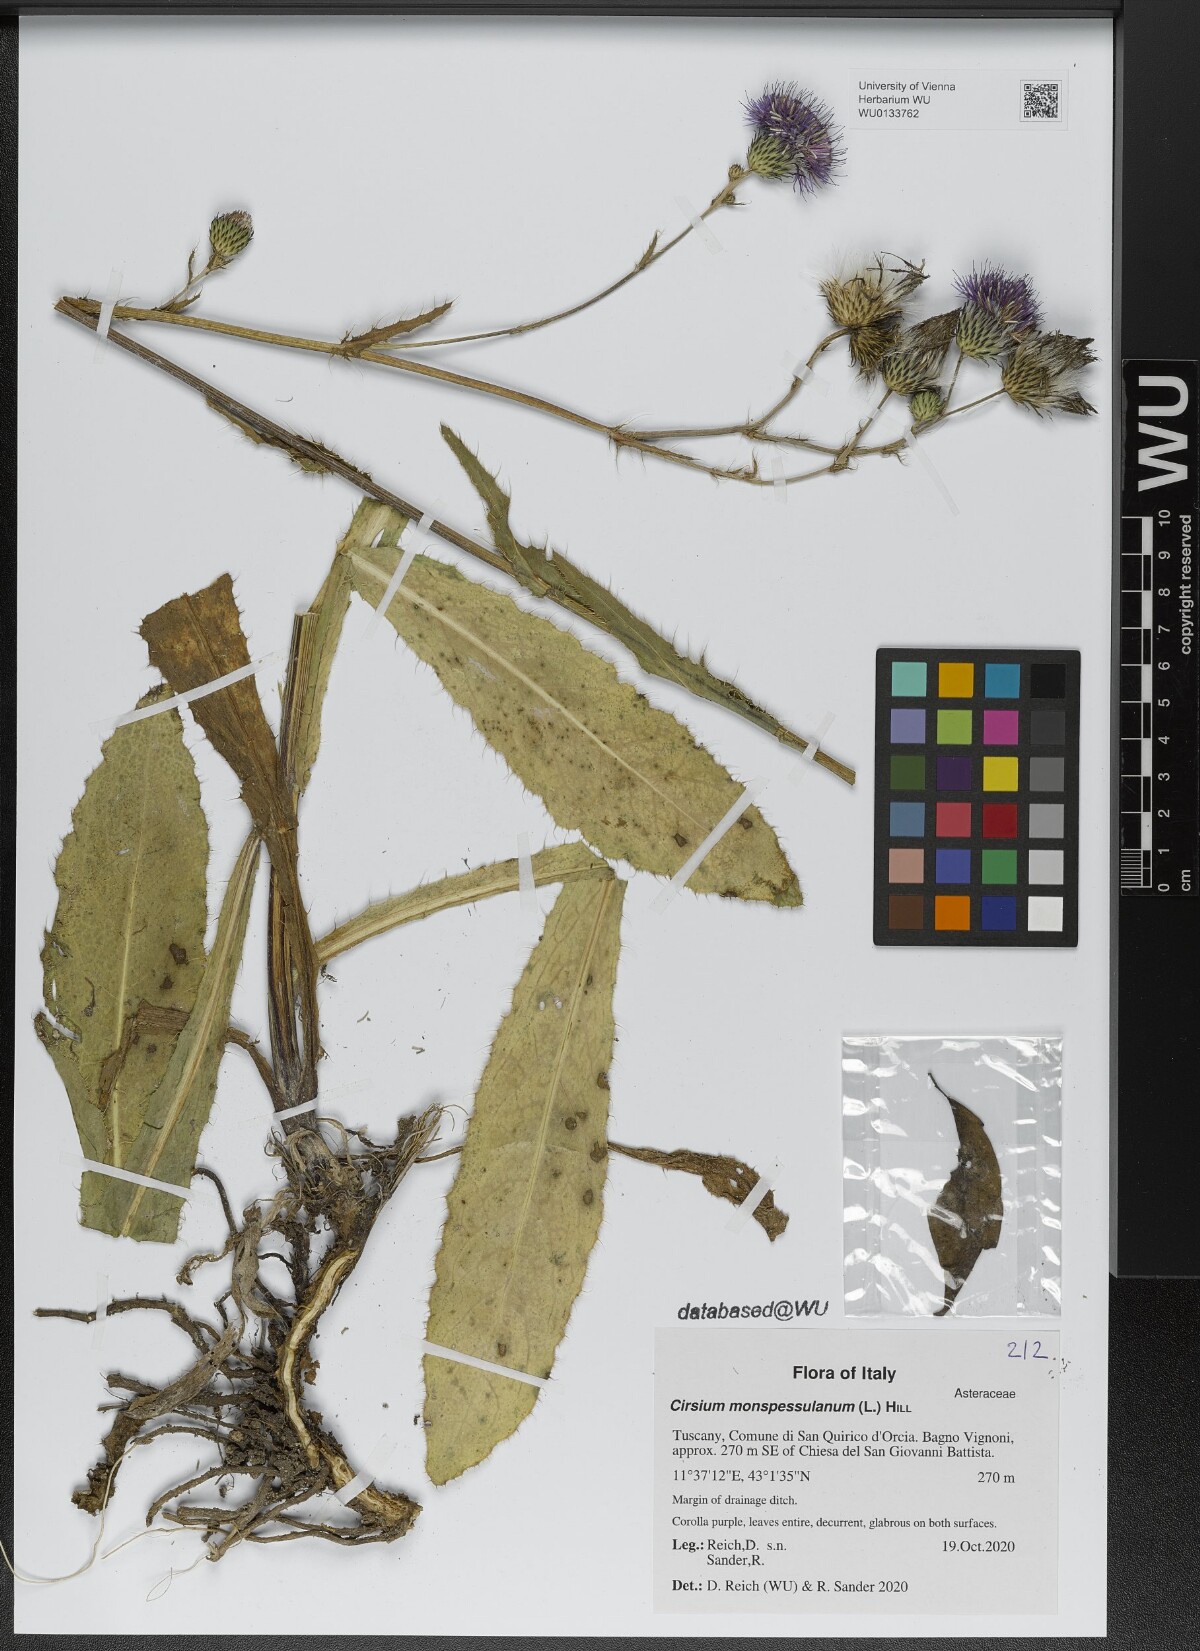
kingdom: Plantae
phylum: Tracheophyta
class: Magnoliopsida
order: Asterales
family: Asteraceae
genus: Cirsium
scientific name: Cirsium monspessulanum
